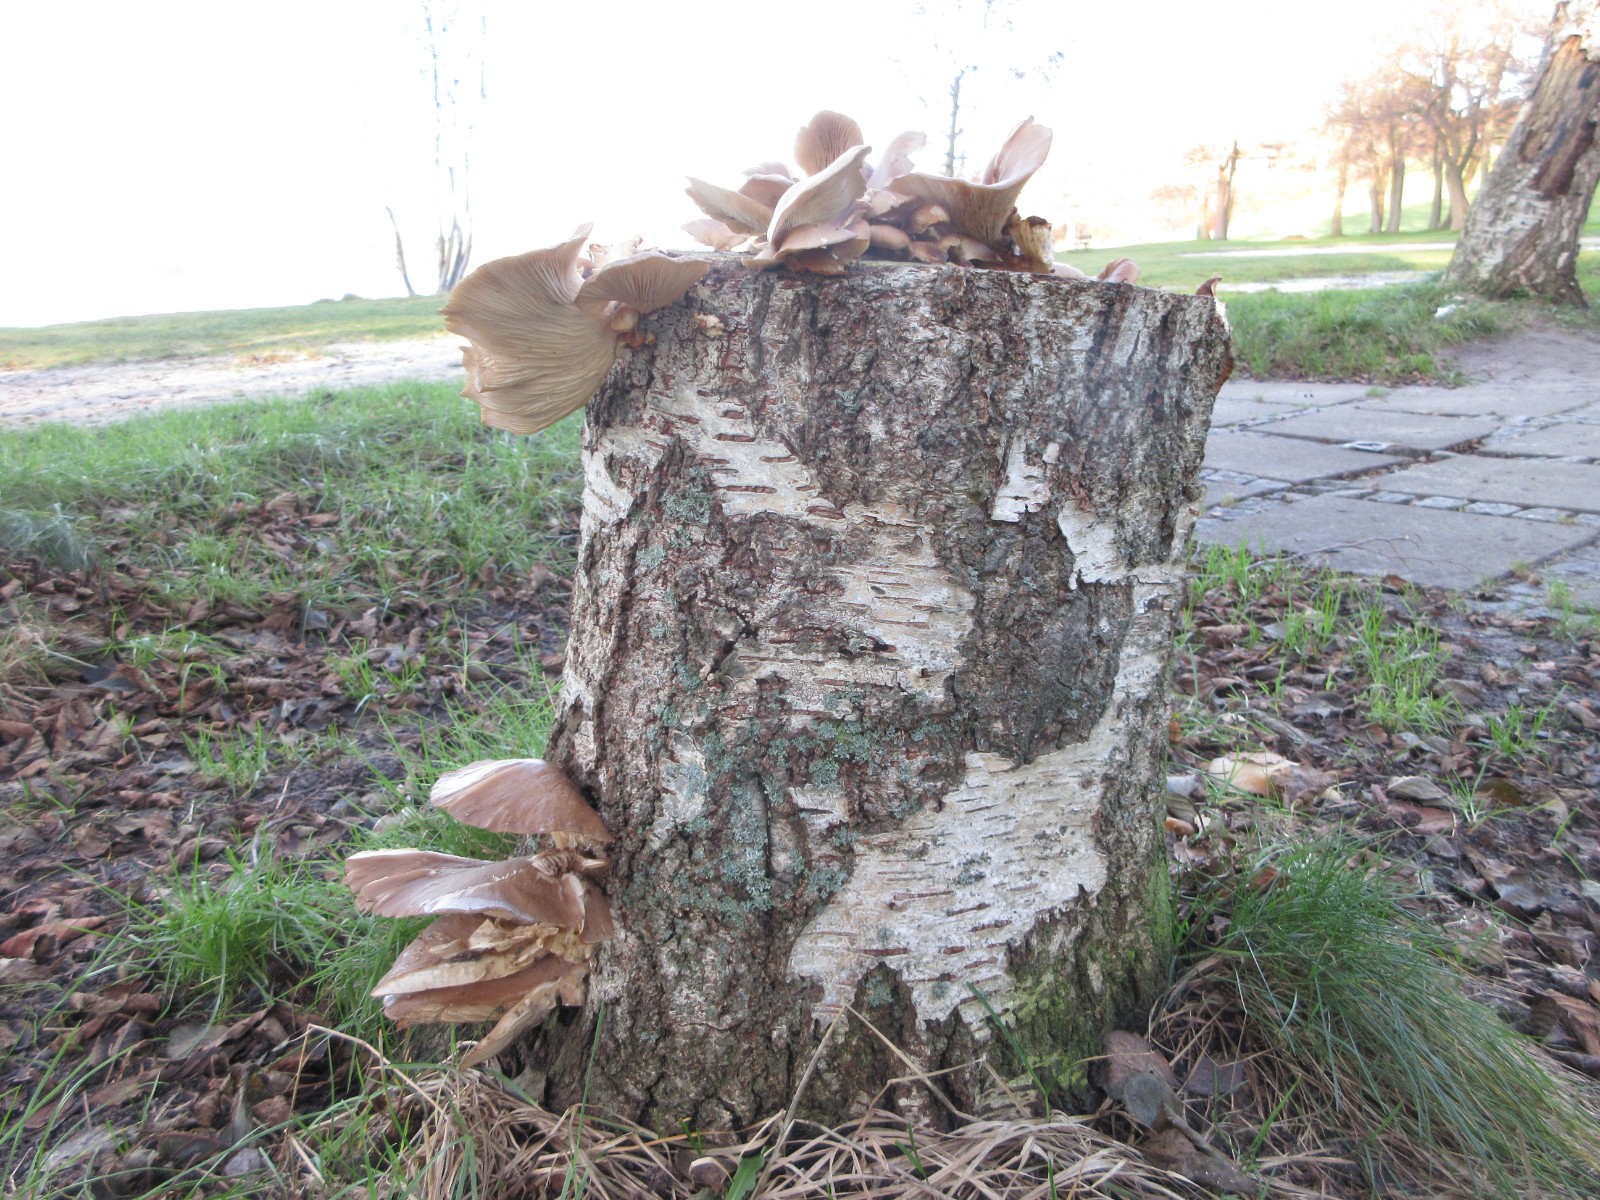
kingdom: Fungi
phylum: Basidiomycota
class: Agaricomycetes
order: Agaricales
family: Pleurotaceae
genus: Pleurotus
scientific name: Pleurotus ostreatus
